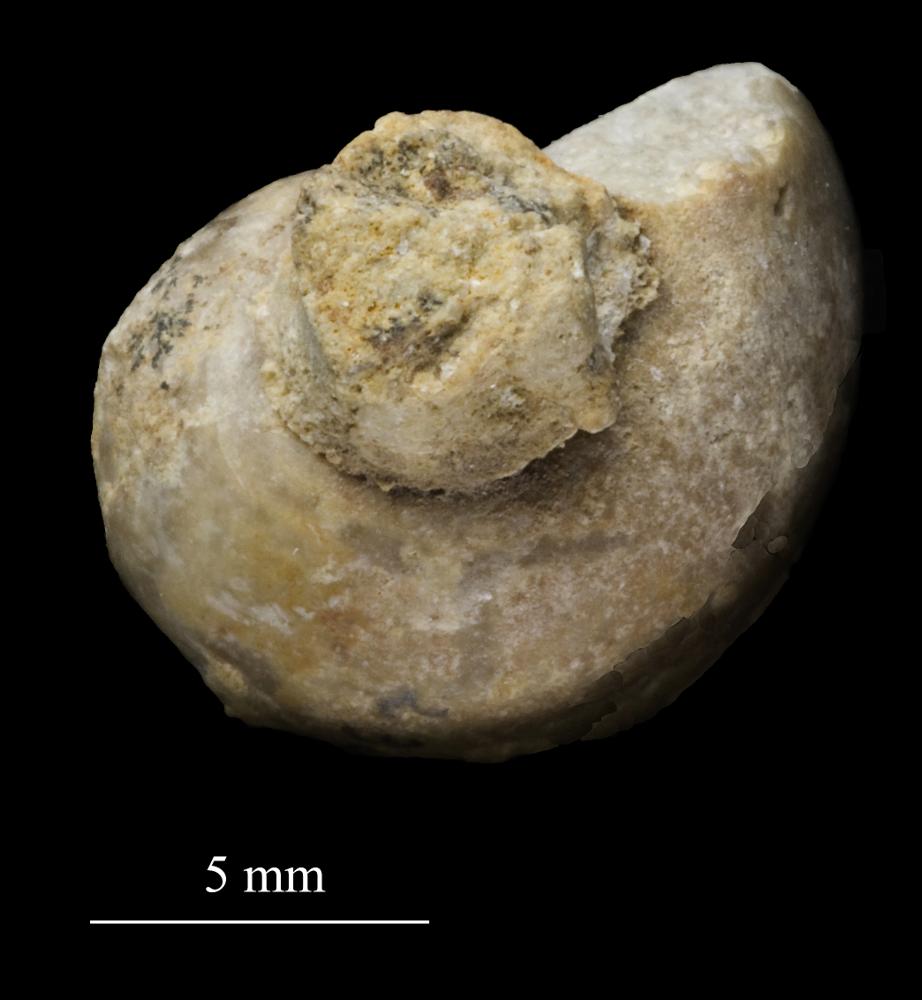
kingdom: Animalia
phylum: Mollusca
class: Gastropoda
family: Bucaniidae
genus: Tetranota
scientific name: Tetranota Bucaniella jugata
